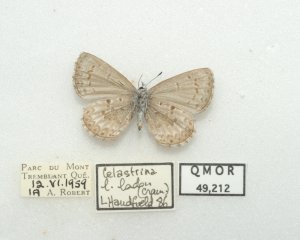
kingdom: Animalia
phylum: Arthropoda
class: Insecta
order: Lepidoptera
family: Lycaenidae
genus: Celastrina
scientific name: Celastrina lucia
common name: Northern Spring Azure
